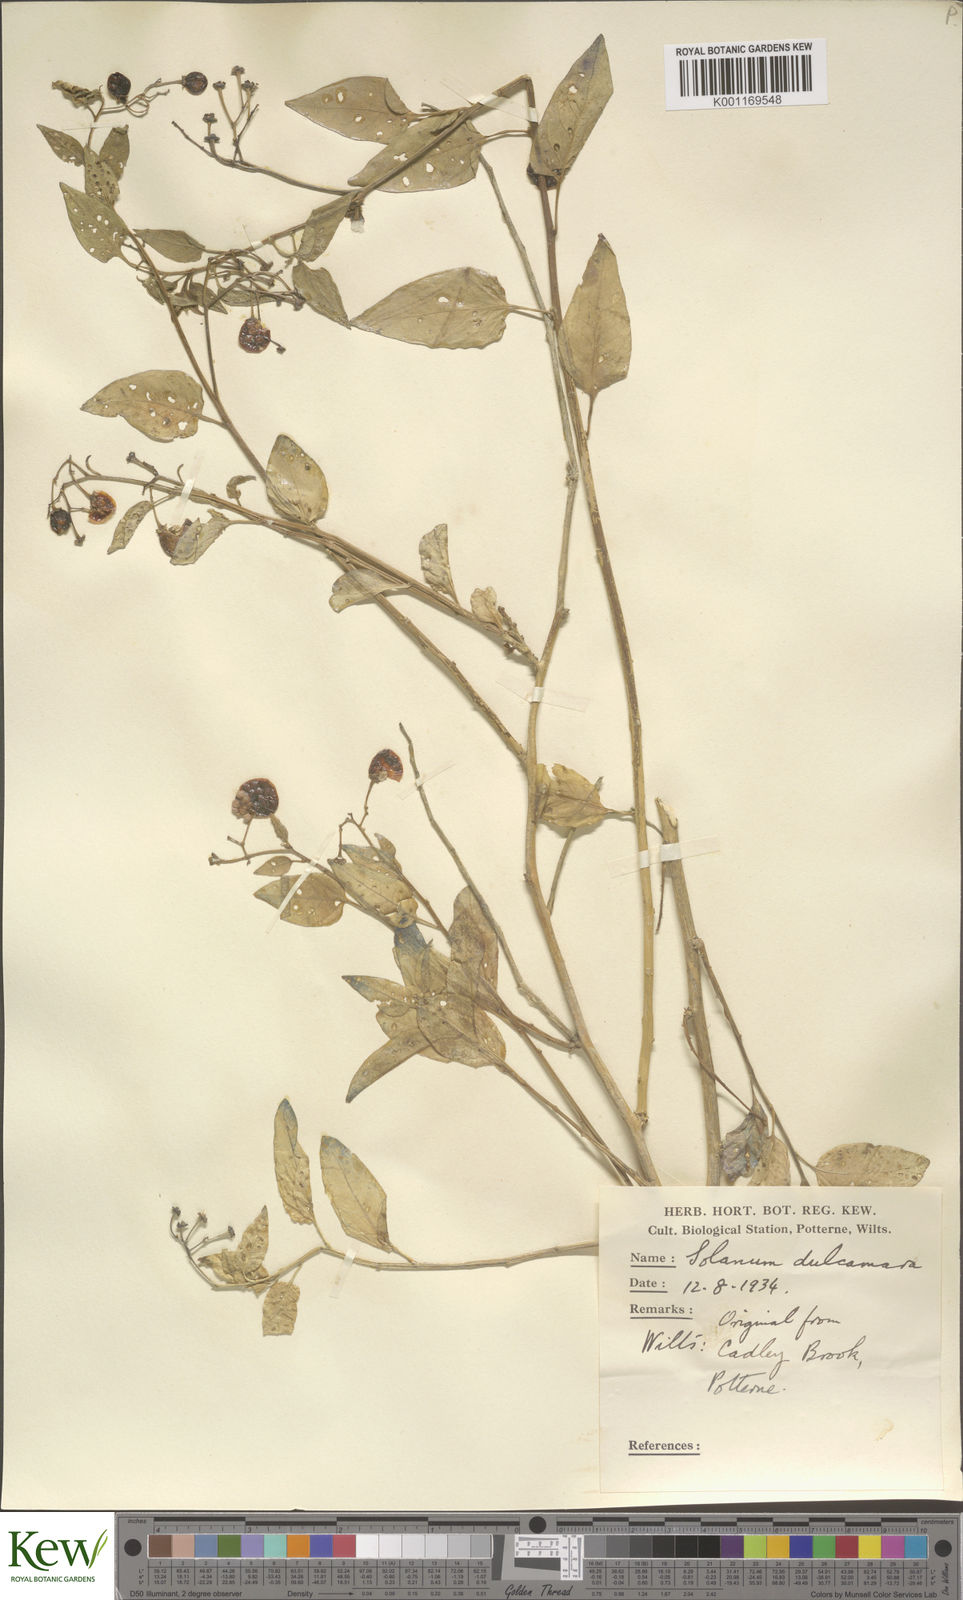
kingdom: Plantae
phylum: Tracheophyta
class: Magnoliopsida
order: Solanales
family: Solanaceae
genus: Solanum
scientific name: Solanum dulcamara
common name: Climbing nightshade
